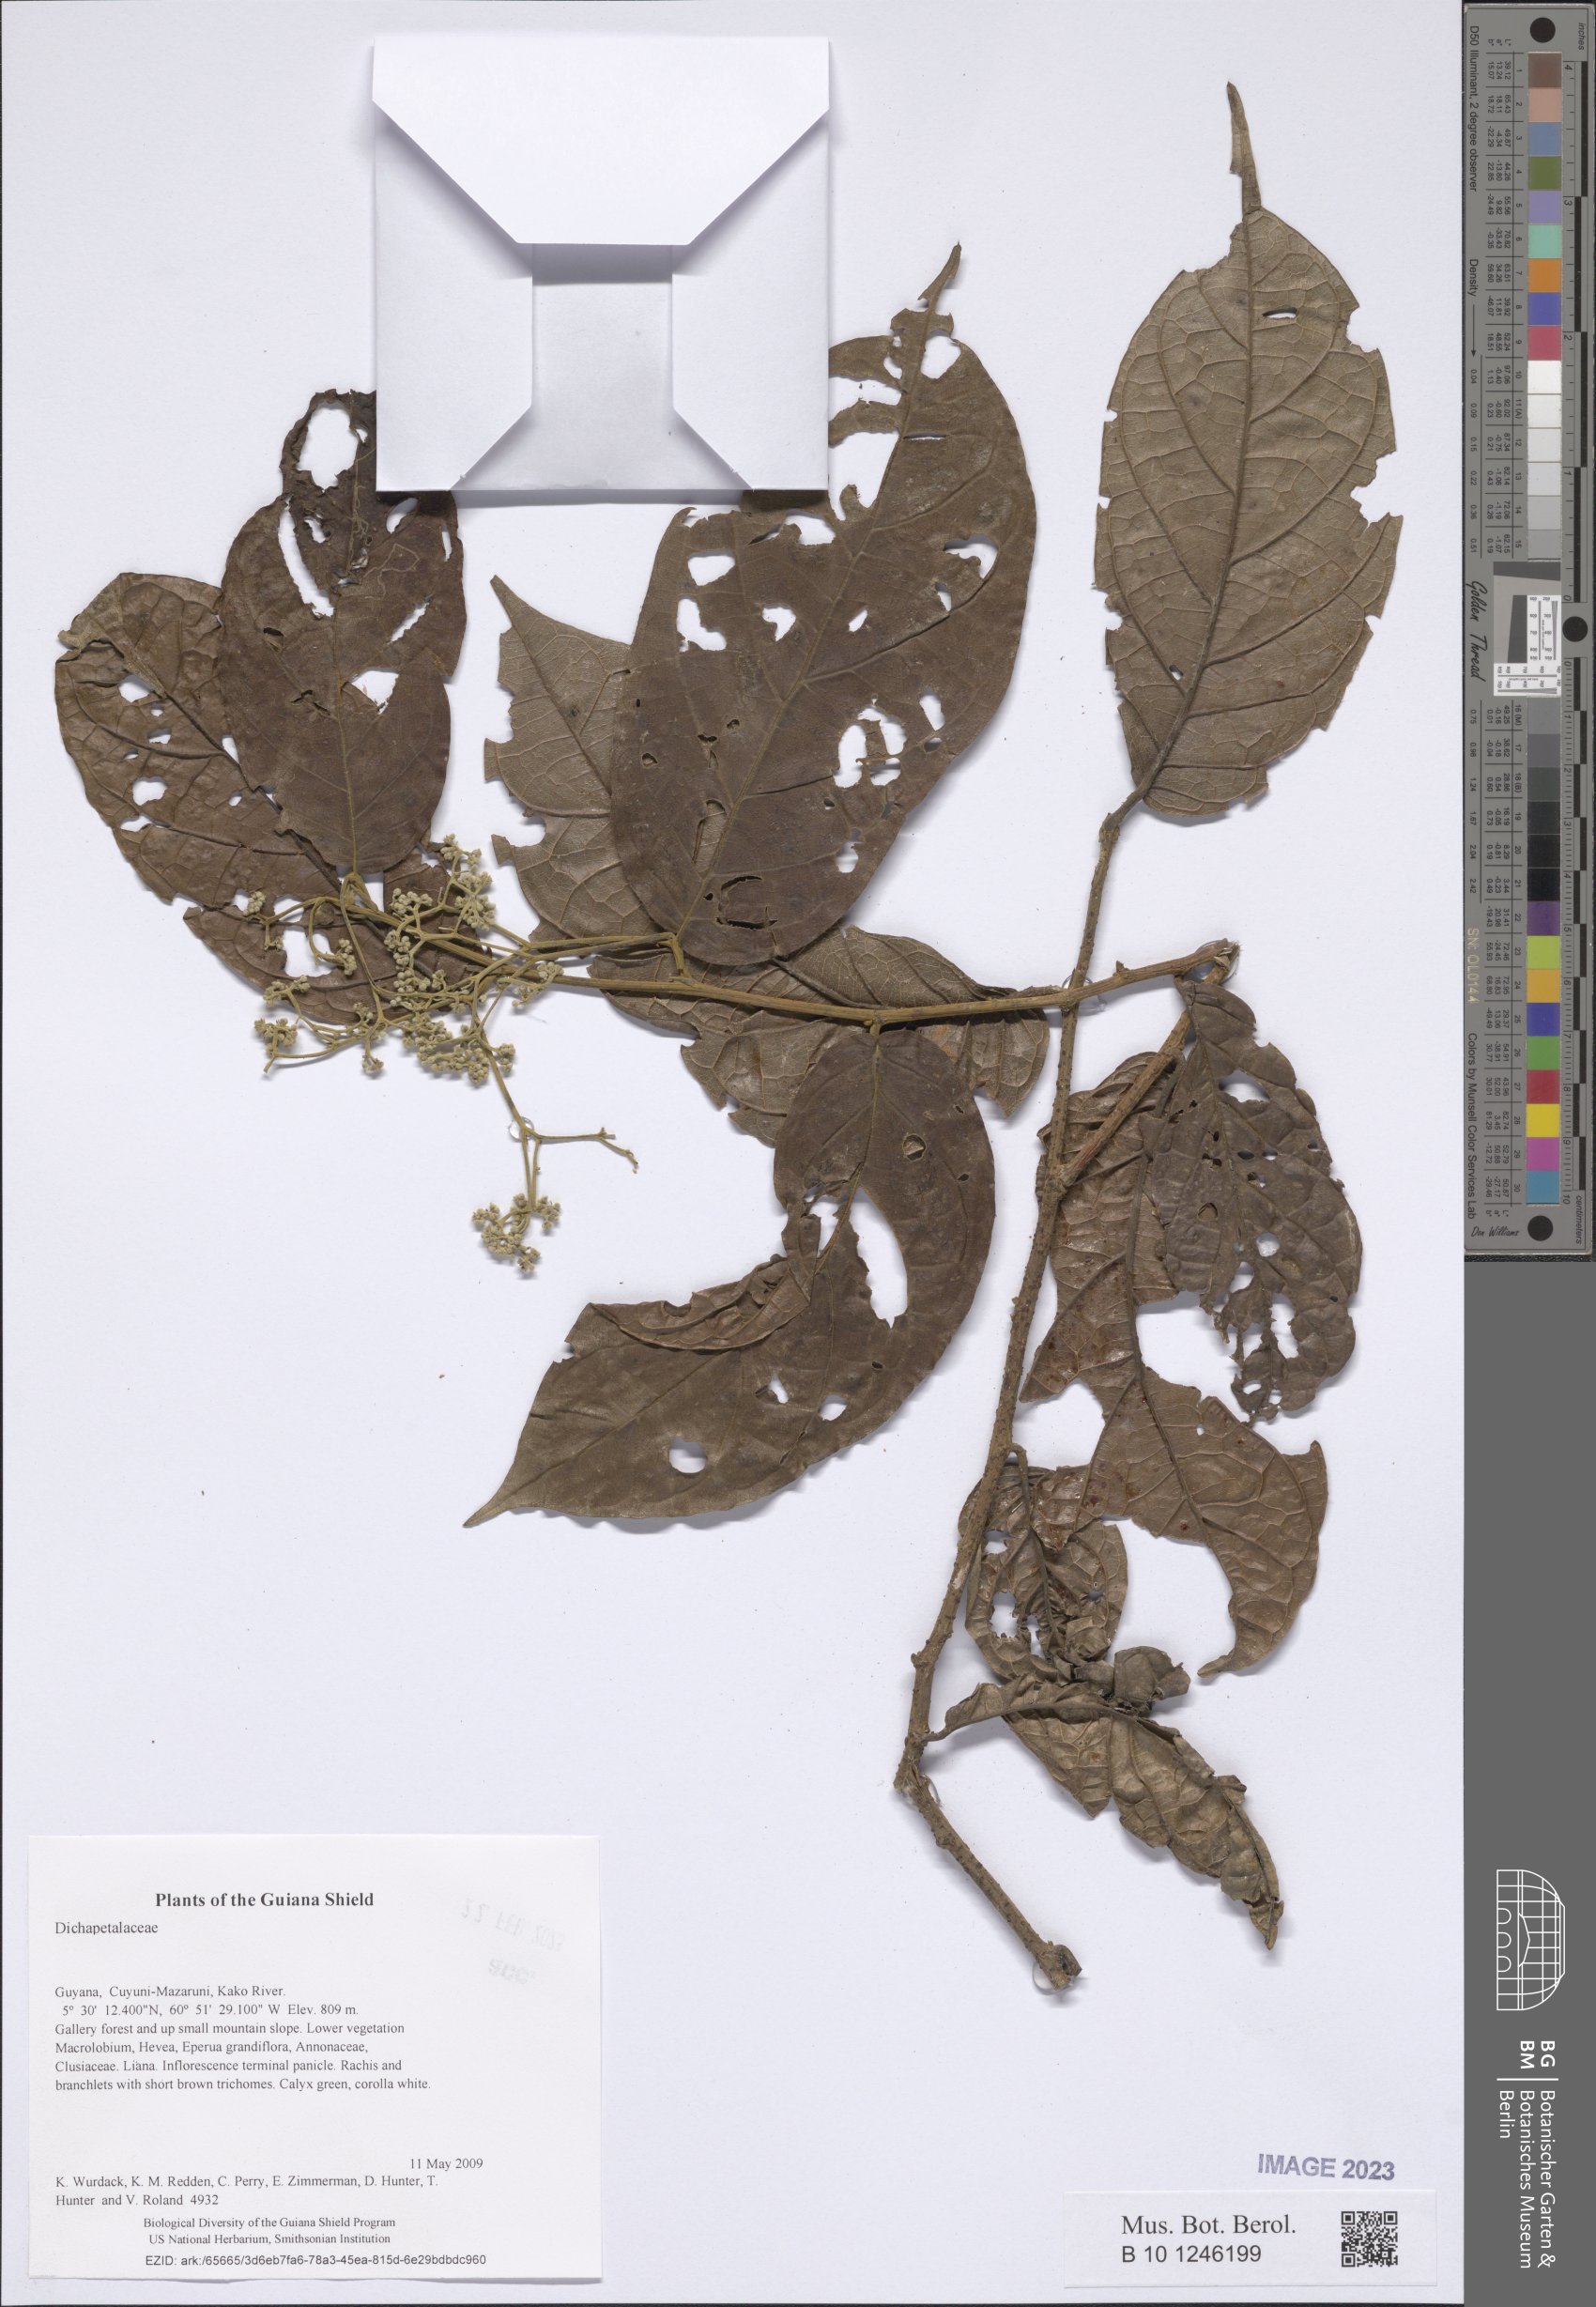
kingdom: Plantae
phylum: Tracheophyta
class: Magnoliopsida
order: Malpighiales
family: Dichapetalaceae
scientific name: Dichapetalaceae
